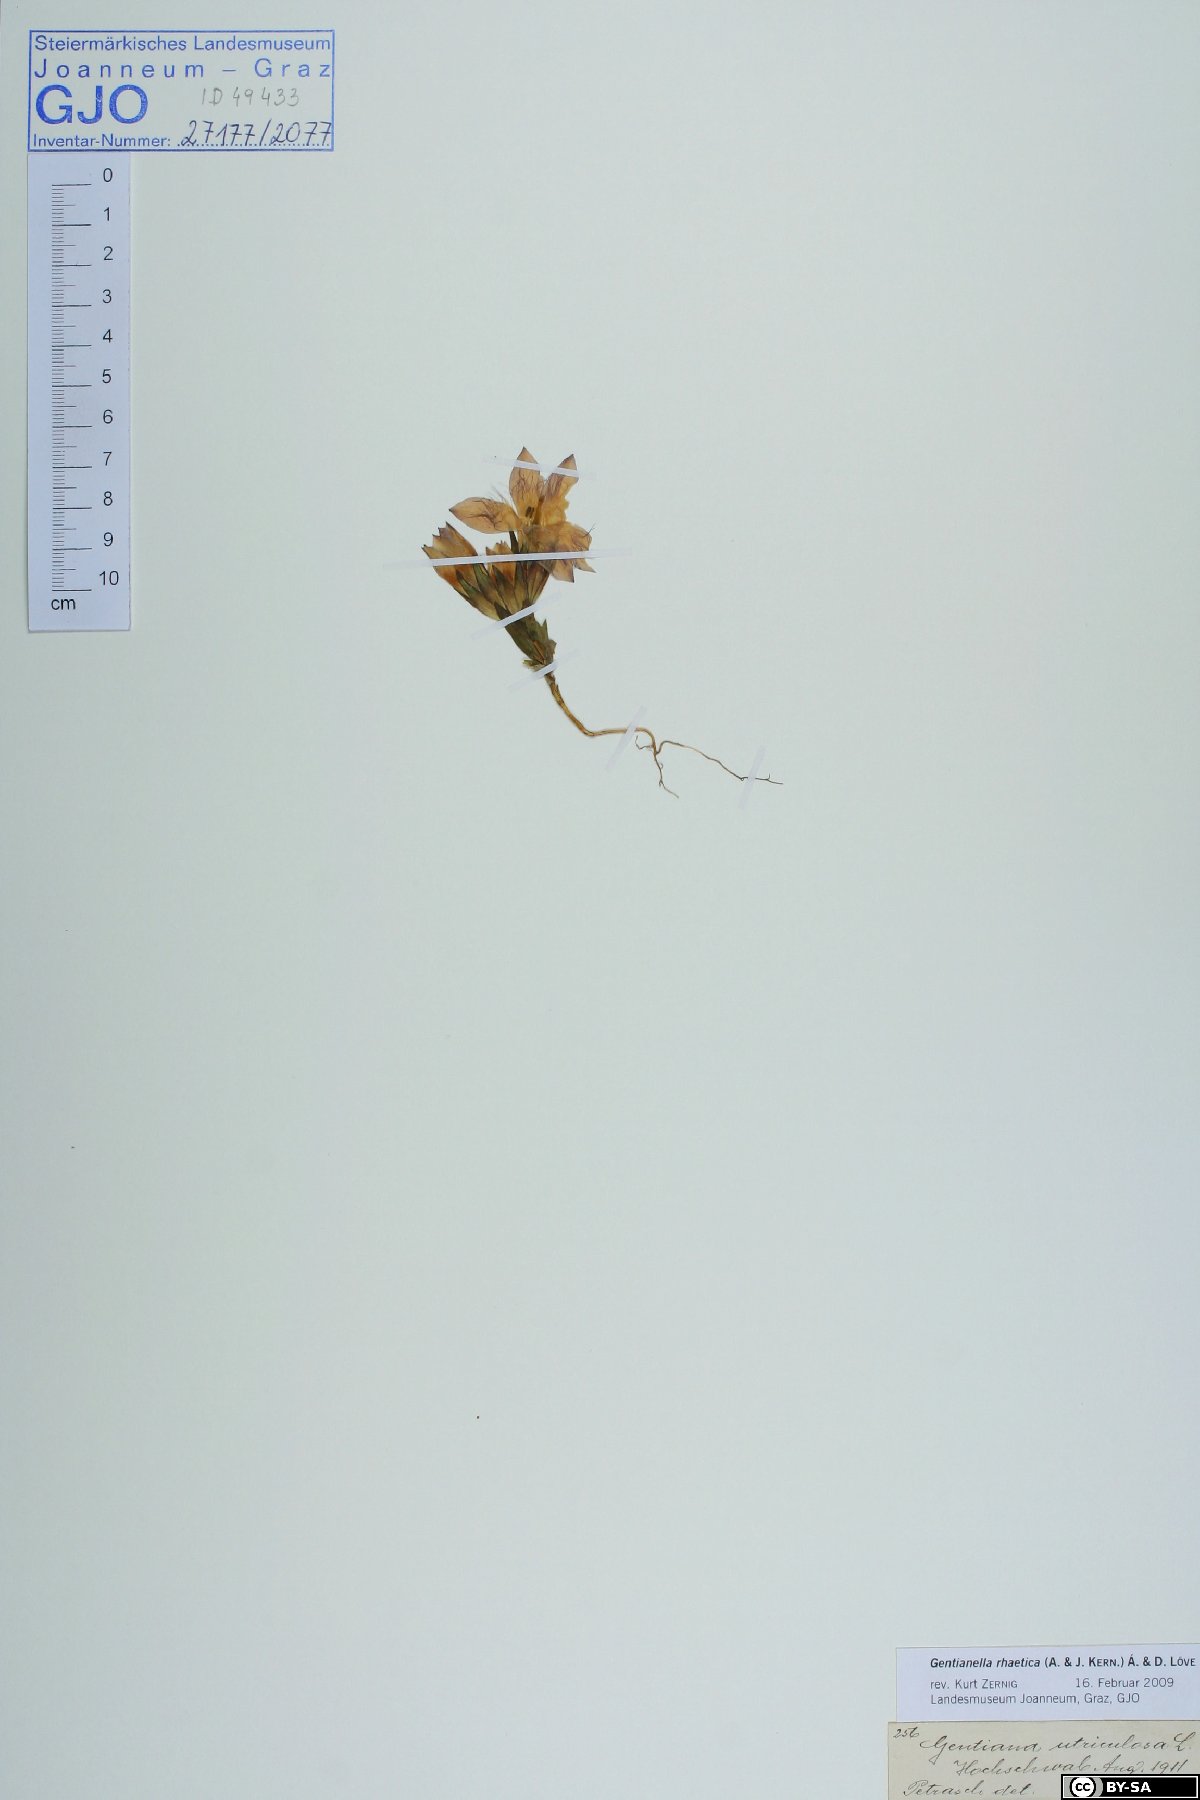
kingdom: Plantae
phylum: Tracheophyta
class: Magnoliopsida
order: Gentianales
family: Gentianaceae
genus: Gentianella
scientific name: Gentianella rhaetica
